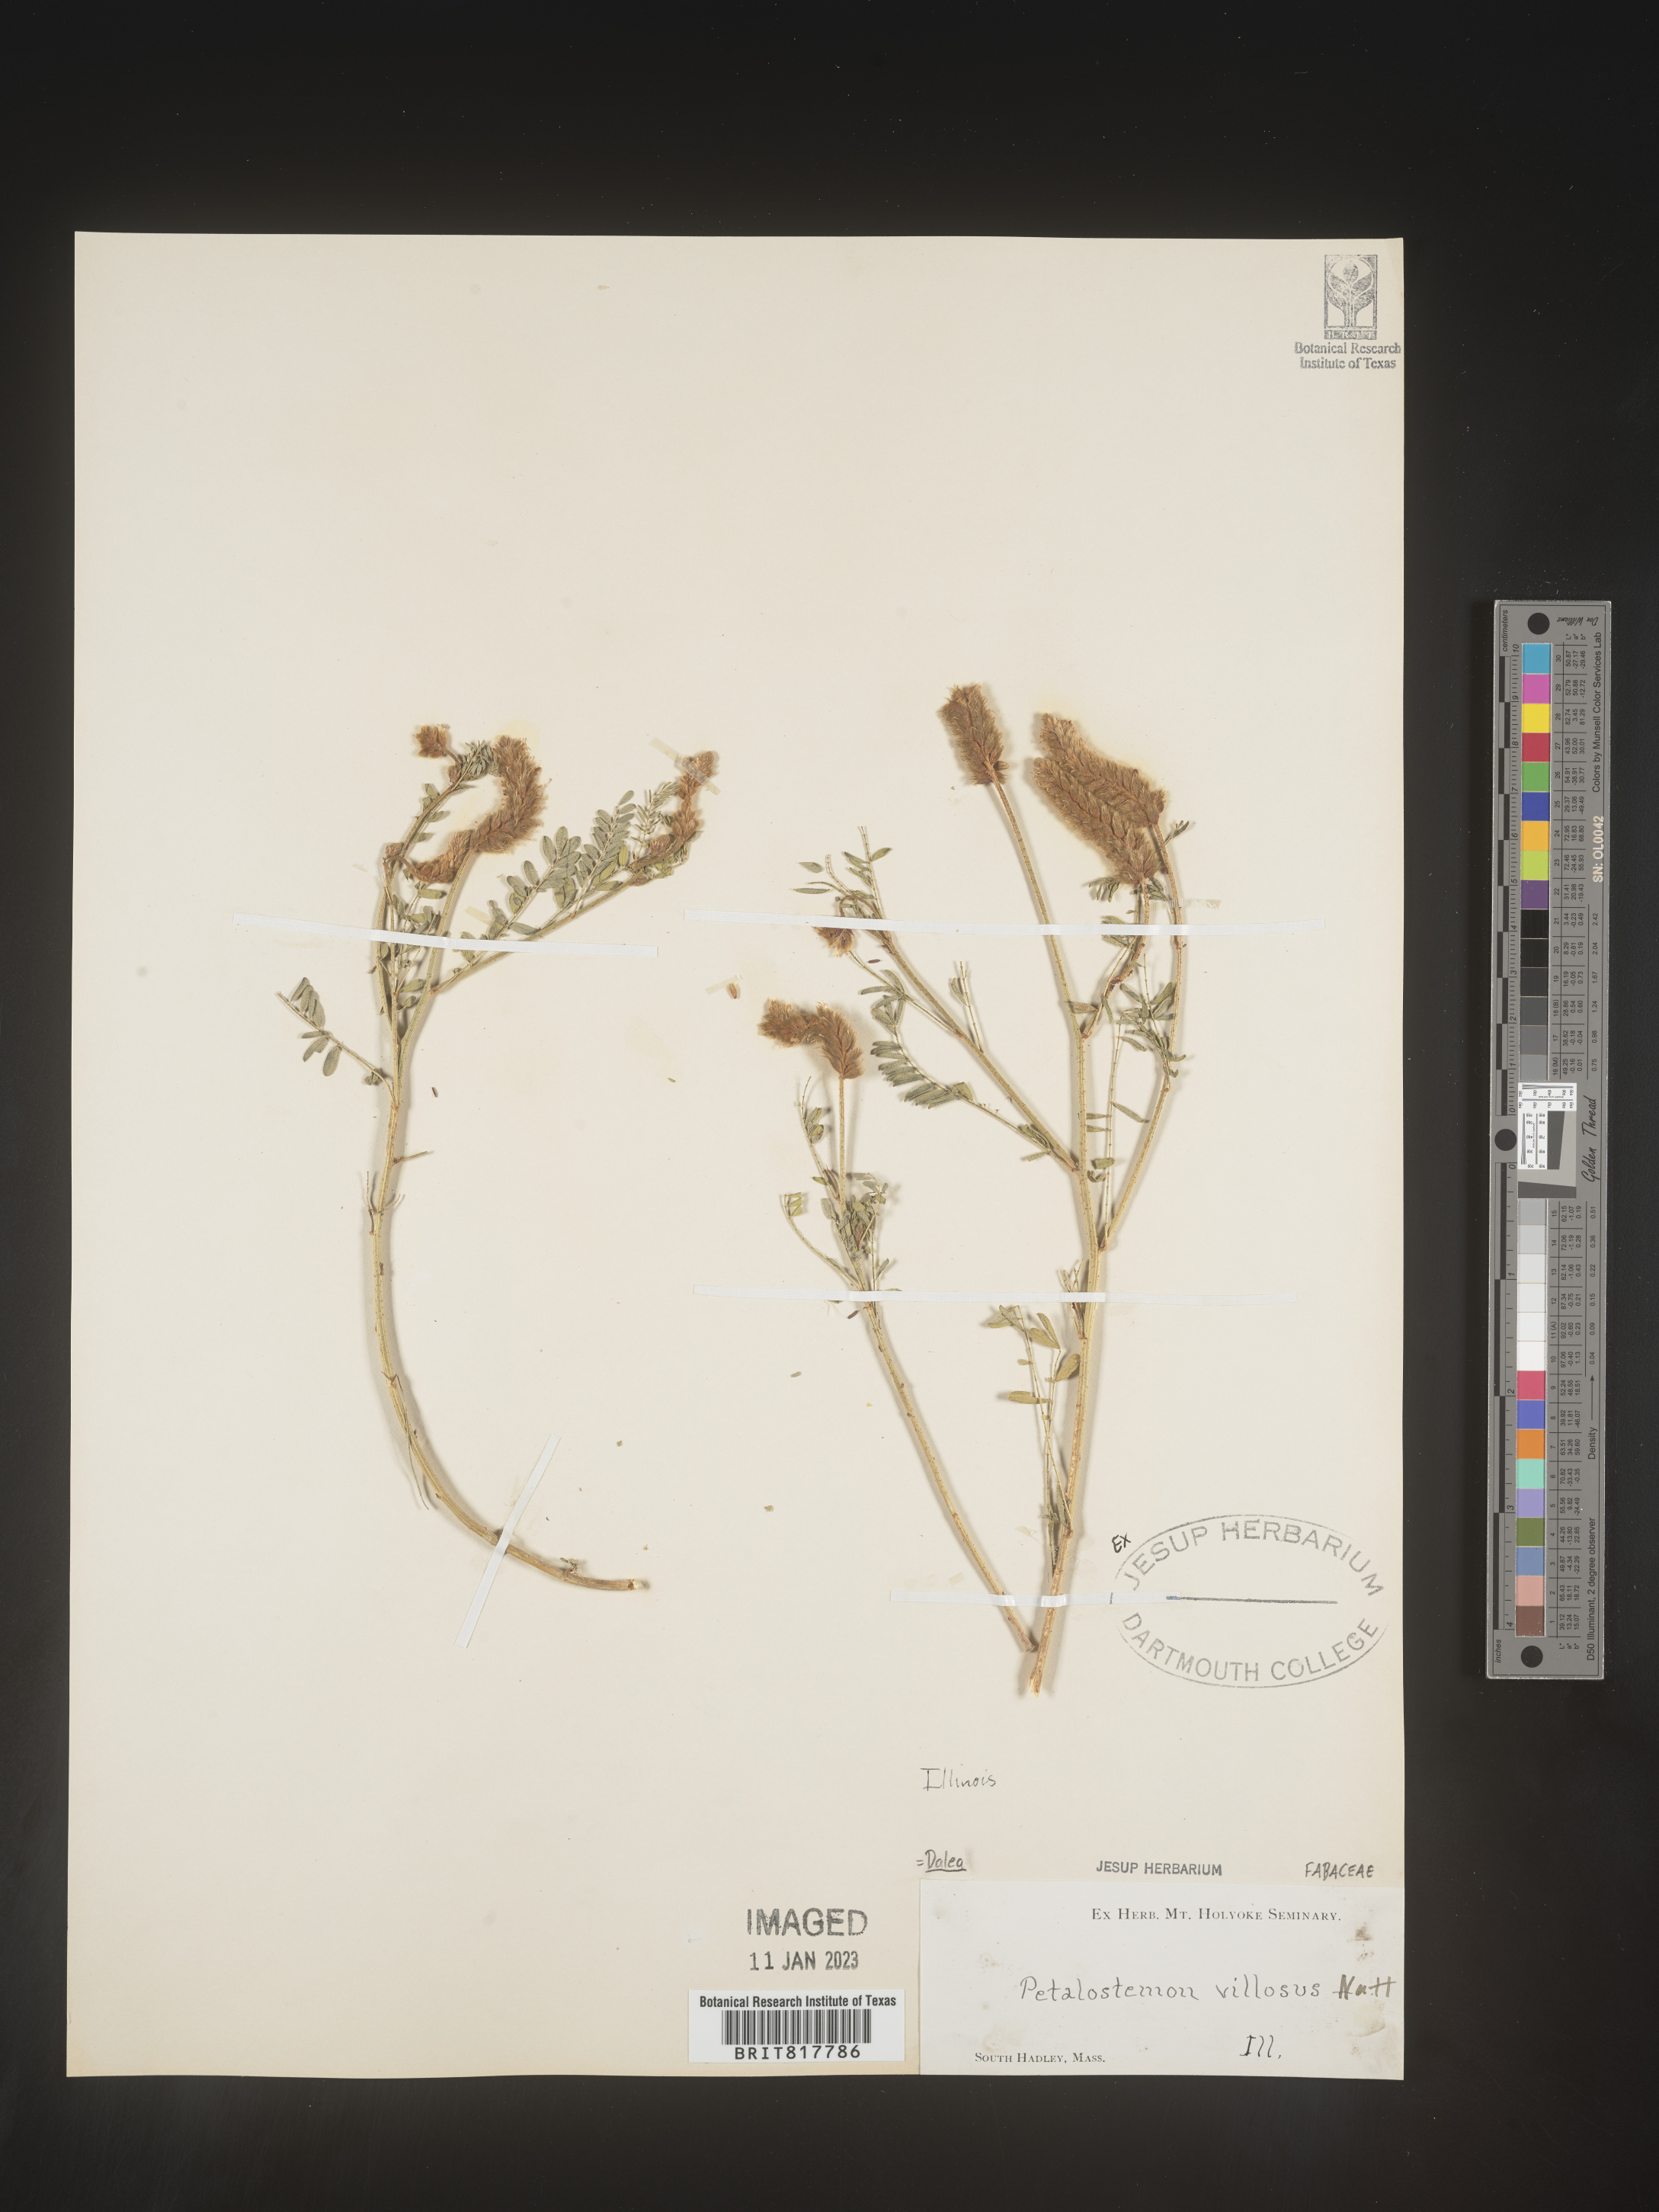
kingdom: Plantae
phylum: Tracheophyta
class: Magnoliopsida
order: Fabales
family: Fabaceae
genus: Dalea
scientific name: Dalea villosa
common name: Silky prairie-clover
